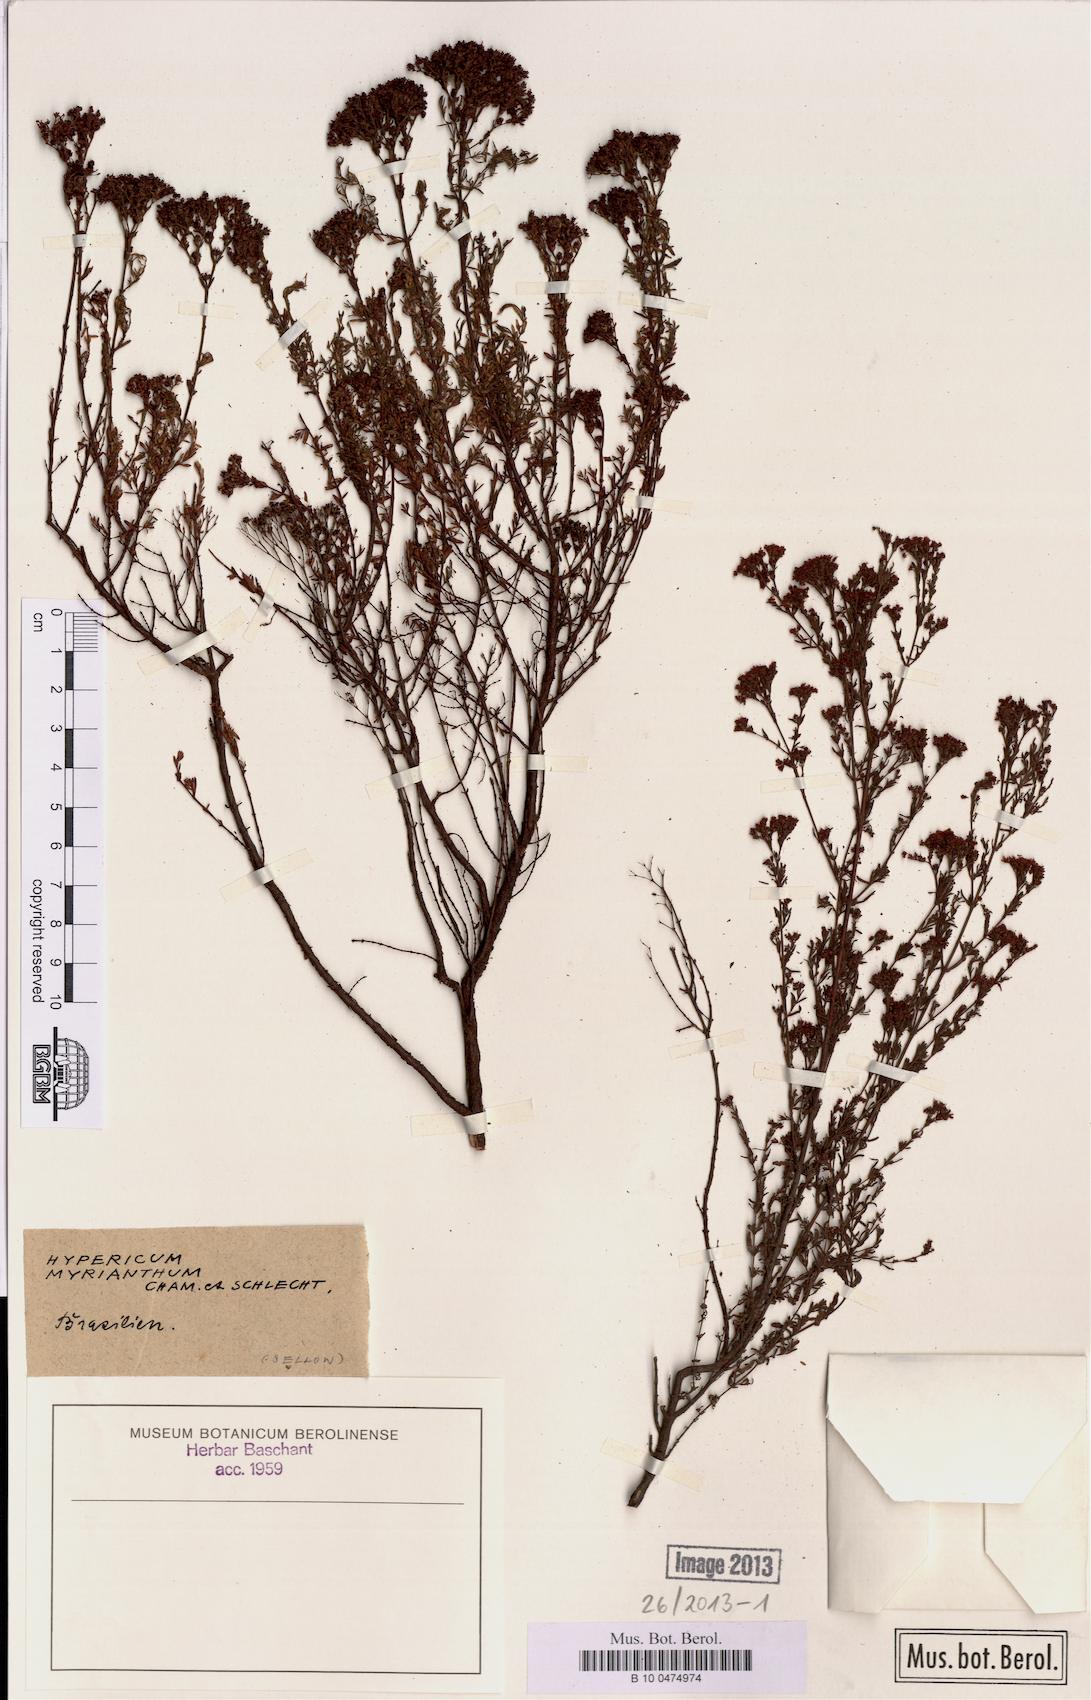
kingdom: Plantae
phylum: Tracheophyta
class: Magnoliopsida
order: Malpighiales
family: Hypericaceae
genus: Hypericum
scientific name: Hypericum myrianthum
